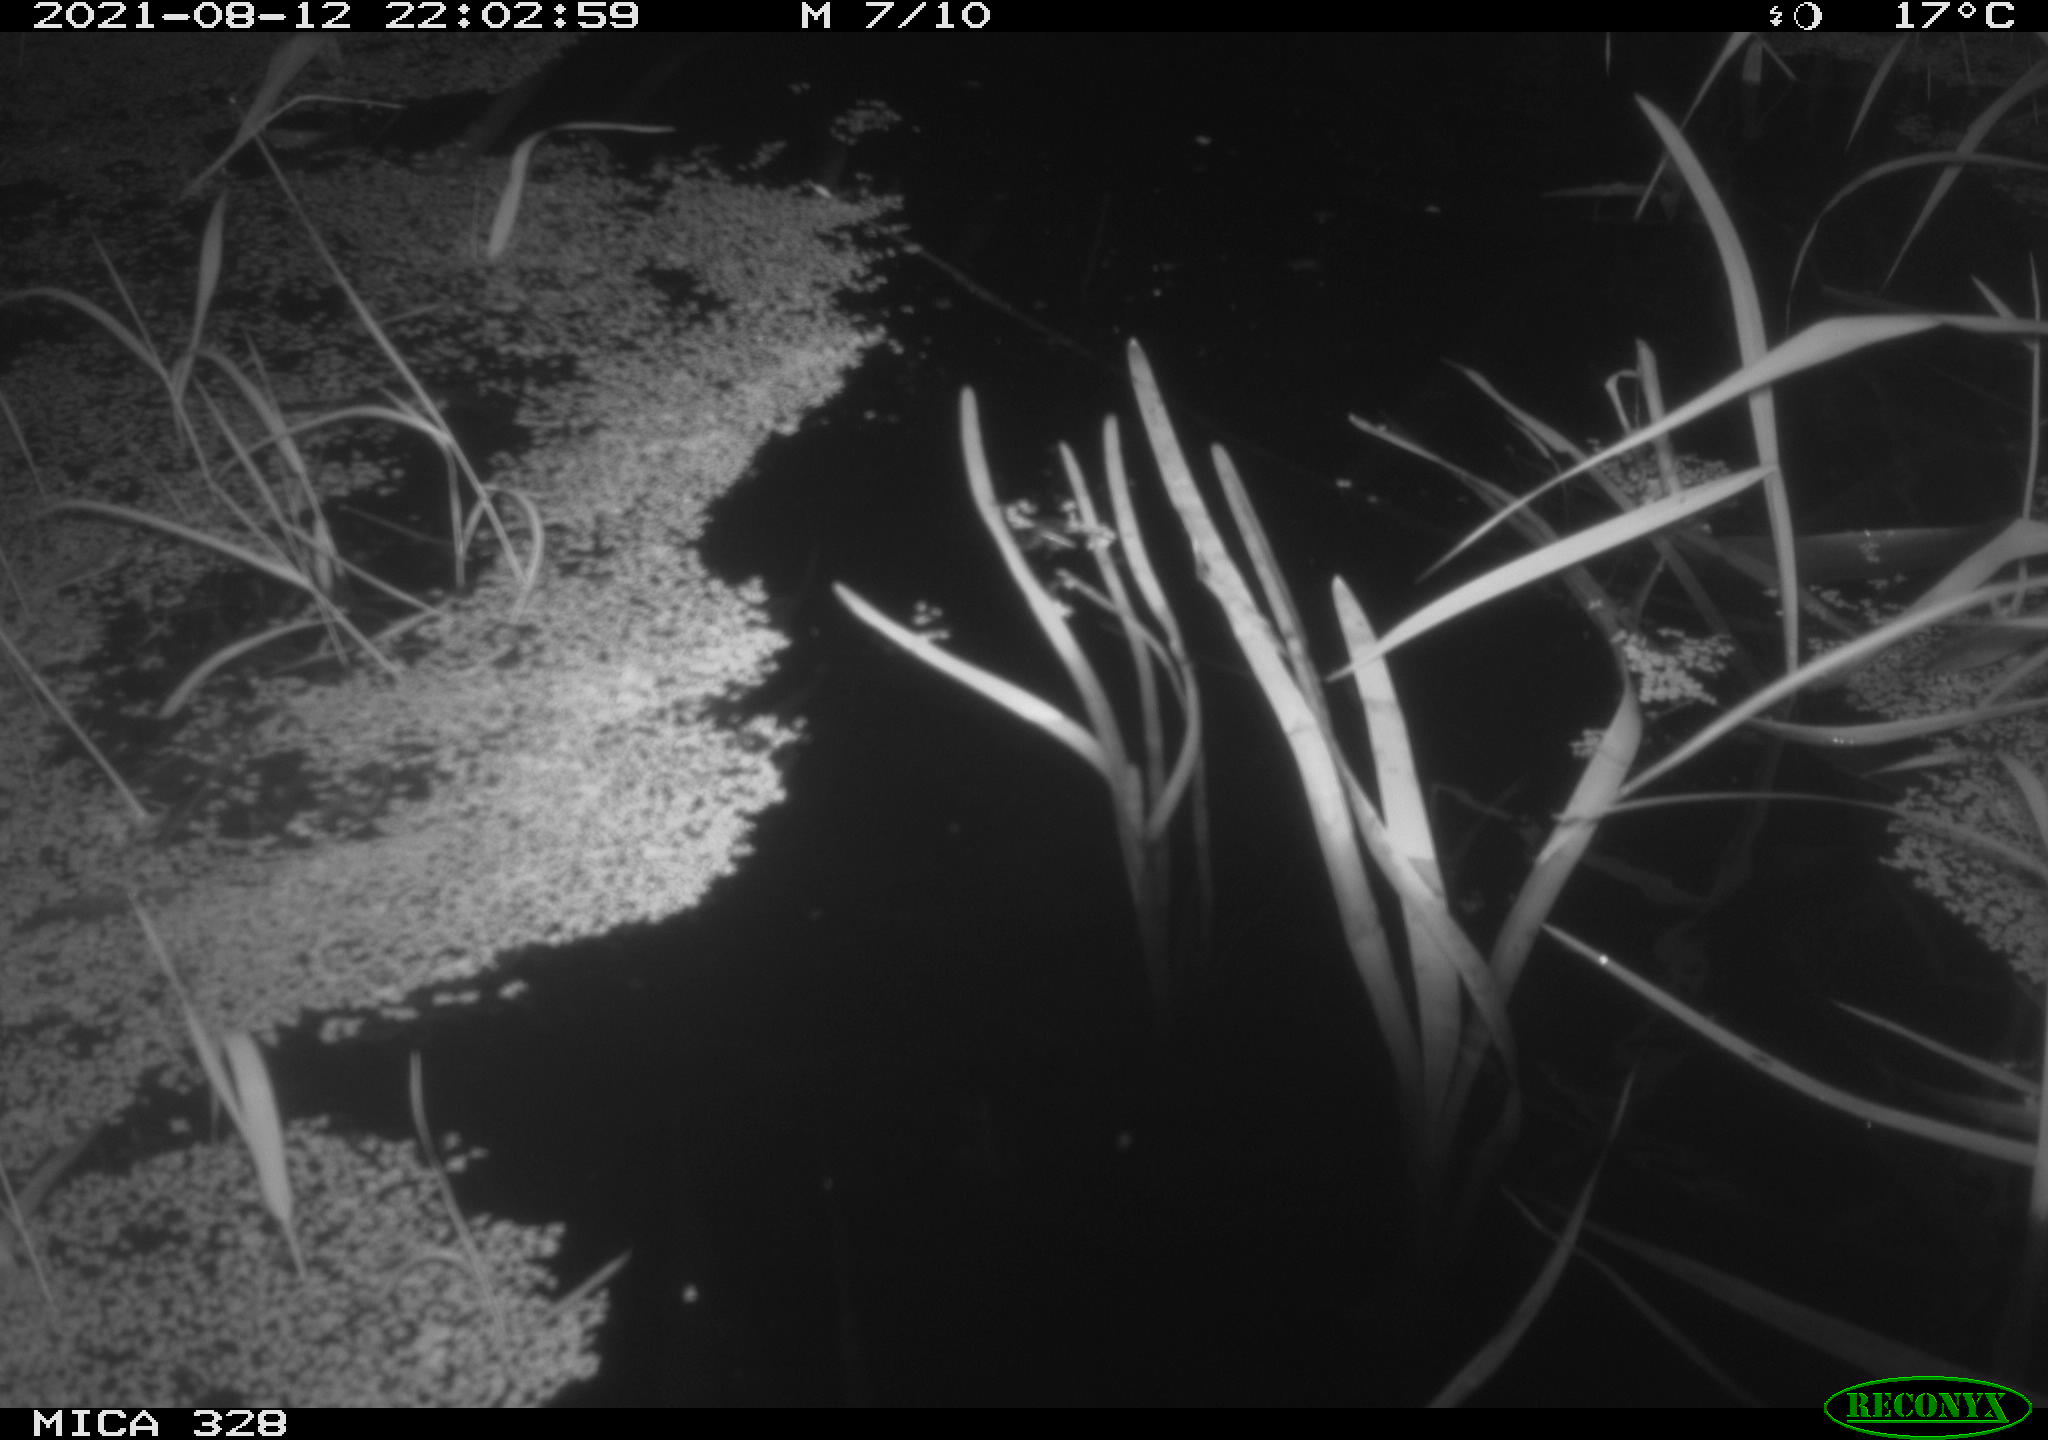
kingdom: Animalia
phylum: Chordata
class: Mammalia
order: Rodentia
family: Cricetidae
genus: Ondatra
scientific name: Ondatra zibethicus
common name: Muskrat
